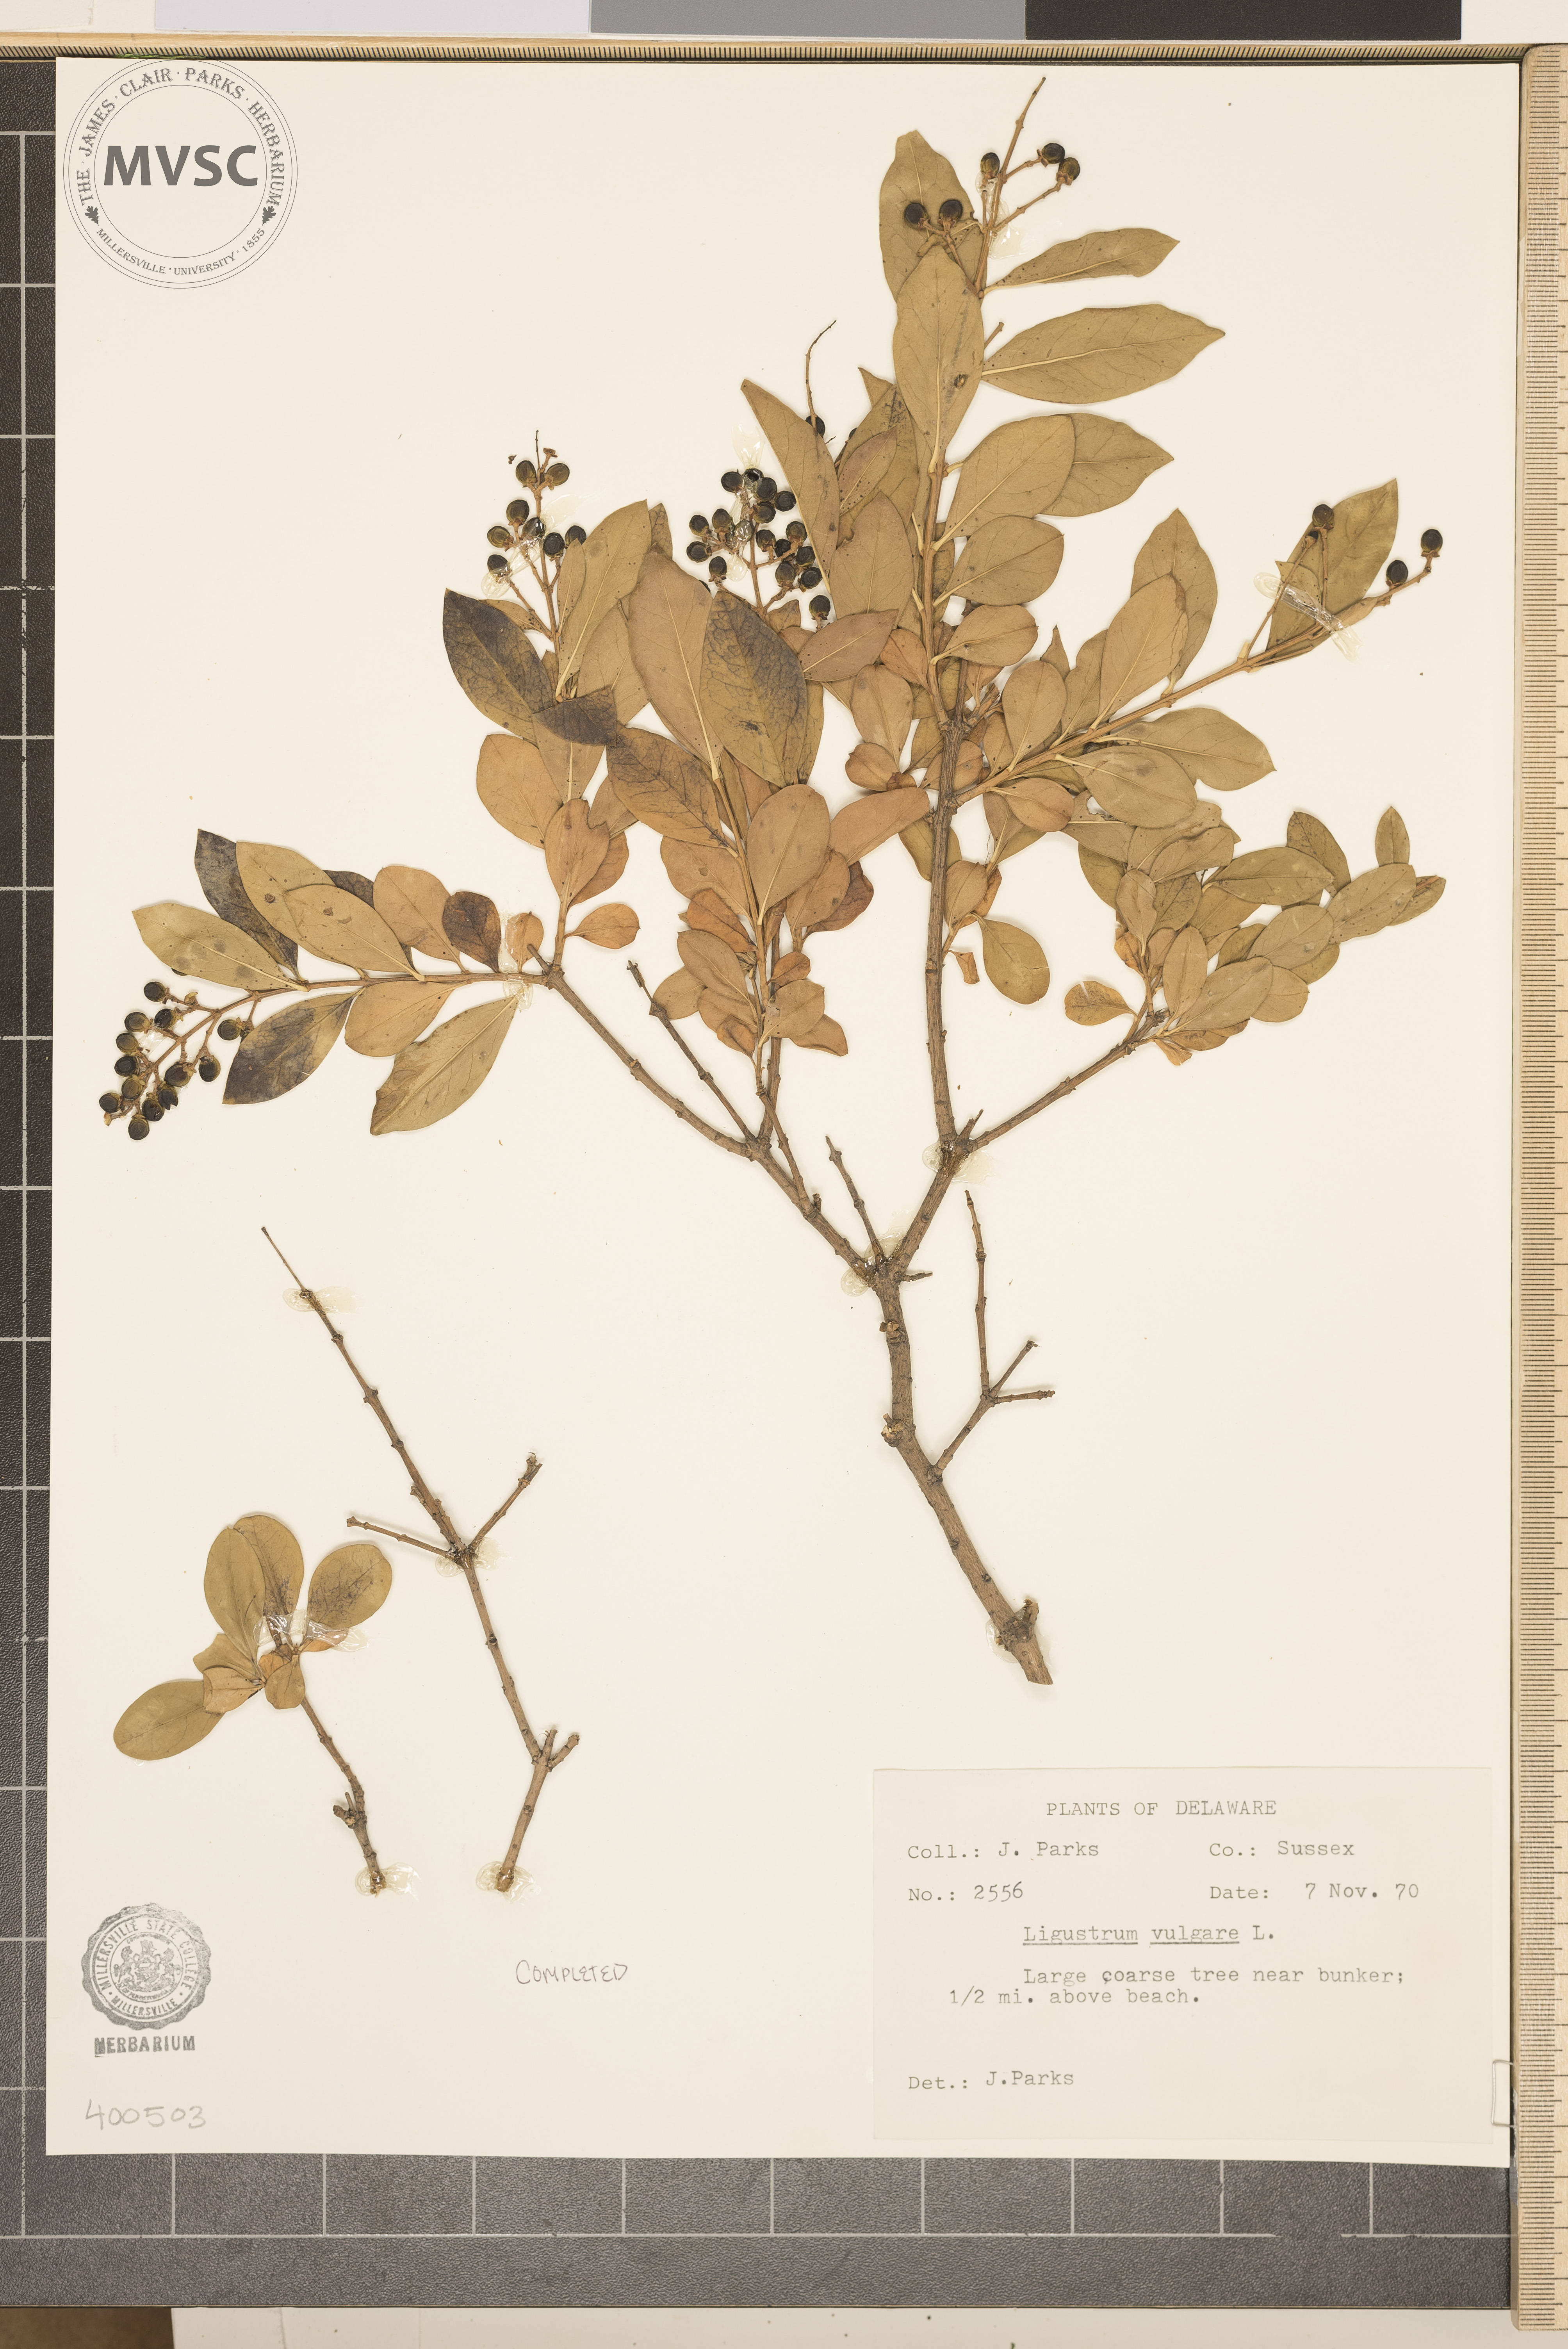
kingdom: Plantae
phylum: Tracheophyta
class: Magnoliopsida
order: Lamiales
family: Oleaceae
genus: Ligustrum
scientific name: Ligustrum vulgare
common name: European privet
